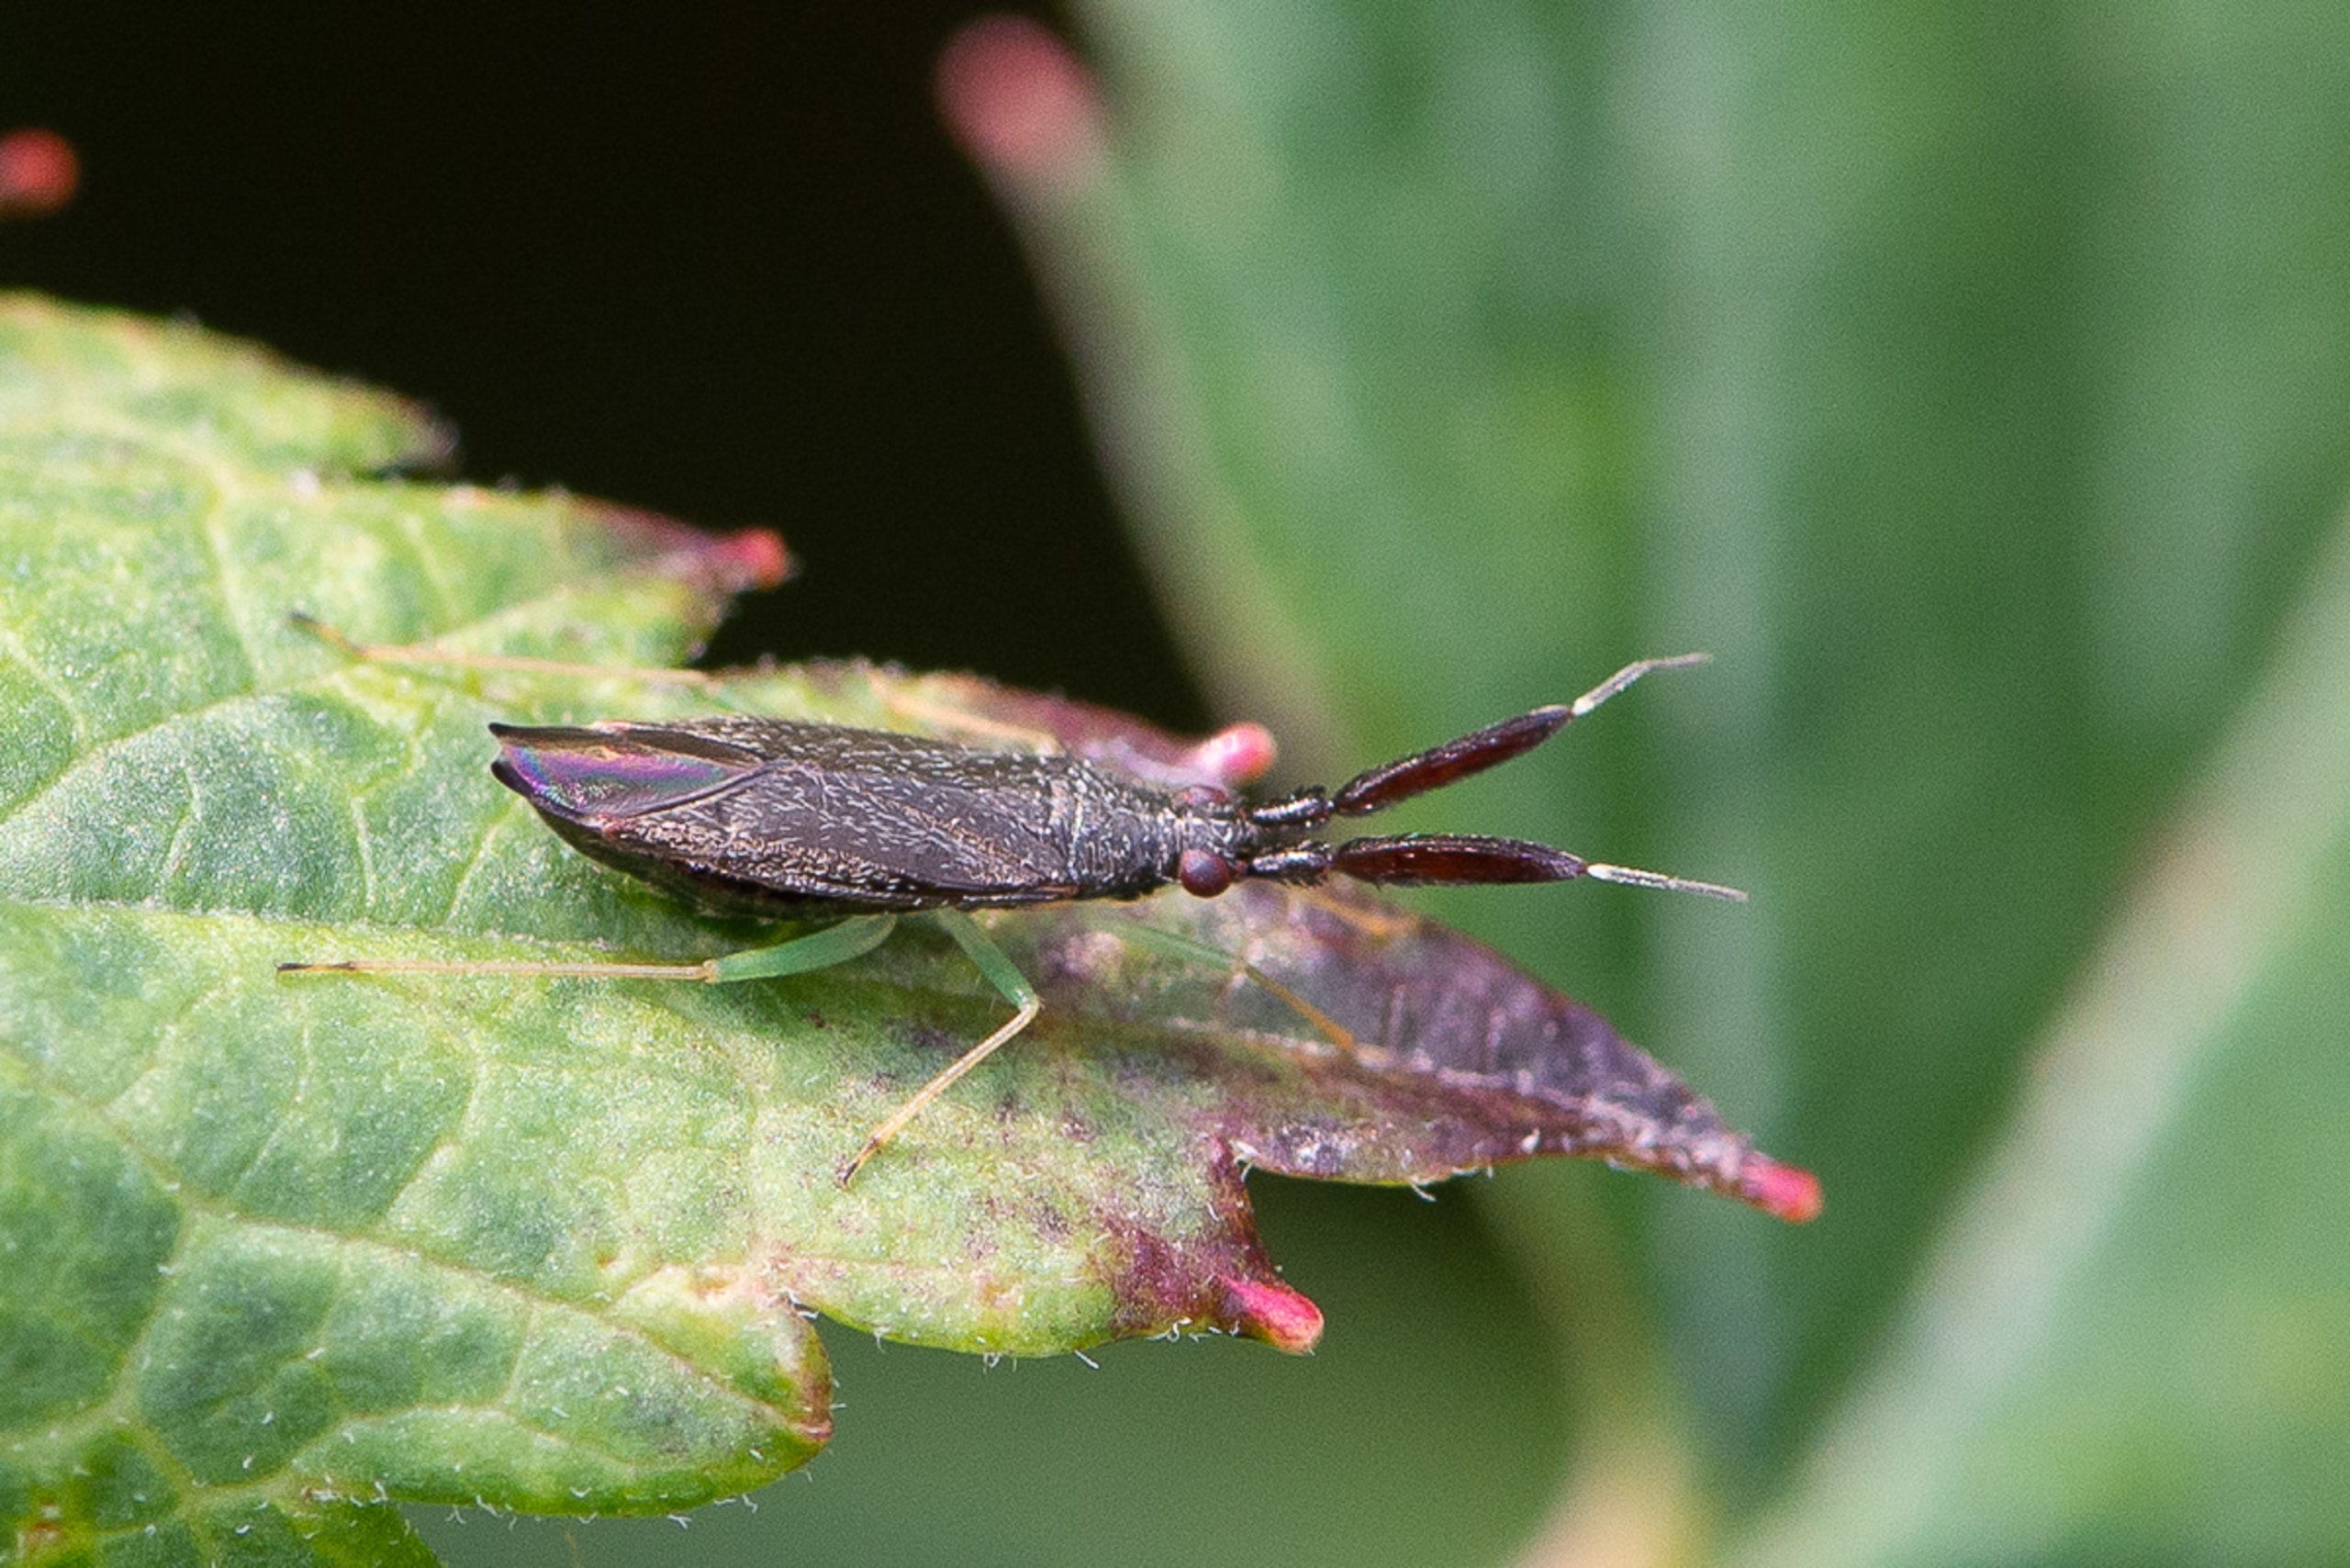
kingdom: Animalia
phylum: Arthropoda
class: Insecta
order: Hemiptera
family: Miridae
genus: Heterotoma
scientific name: Heterotoma planicornis
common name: Køllehornet blomstertæge
